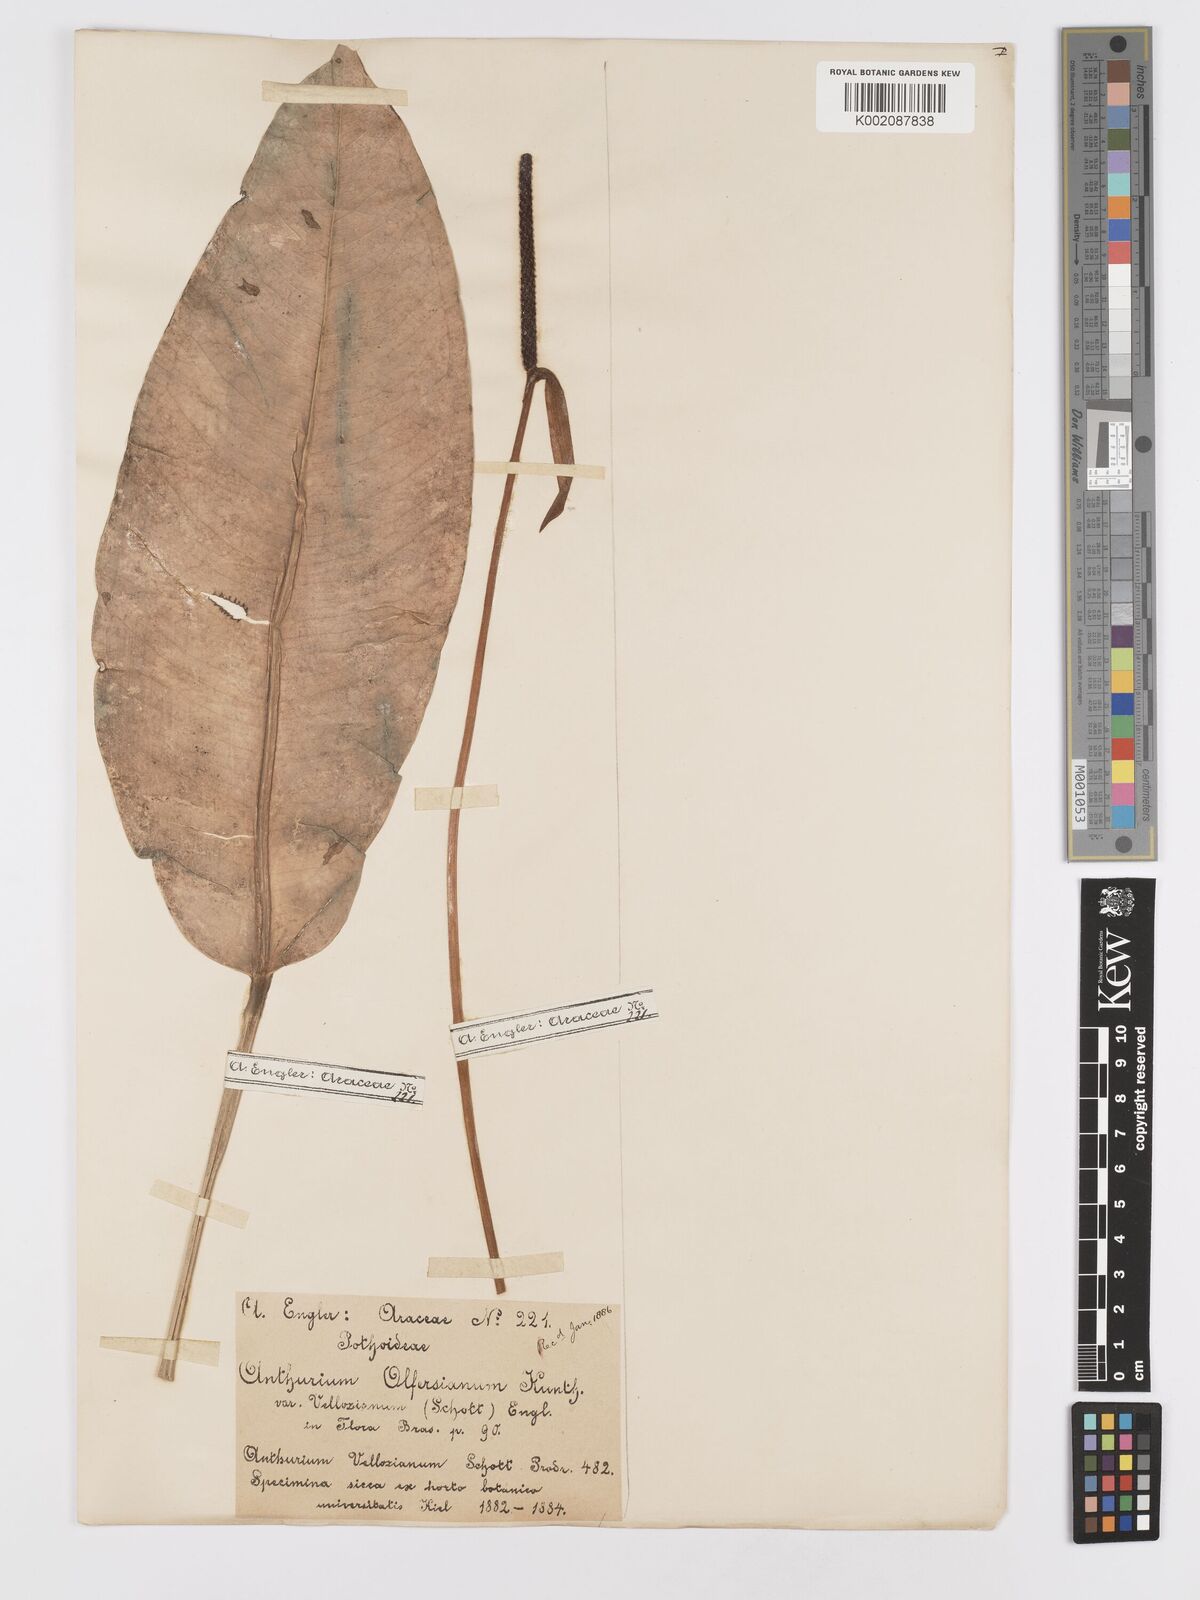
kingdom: Plantae
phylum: Tracheophyta
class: Liliopsida
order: Alismatales
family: Araceae
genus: Anthurium
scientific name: Anthurium parasiticum
